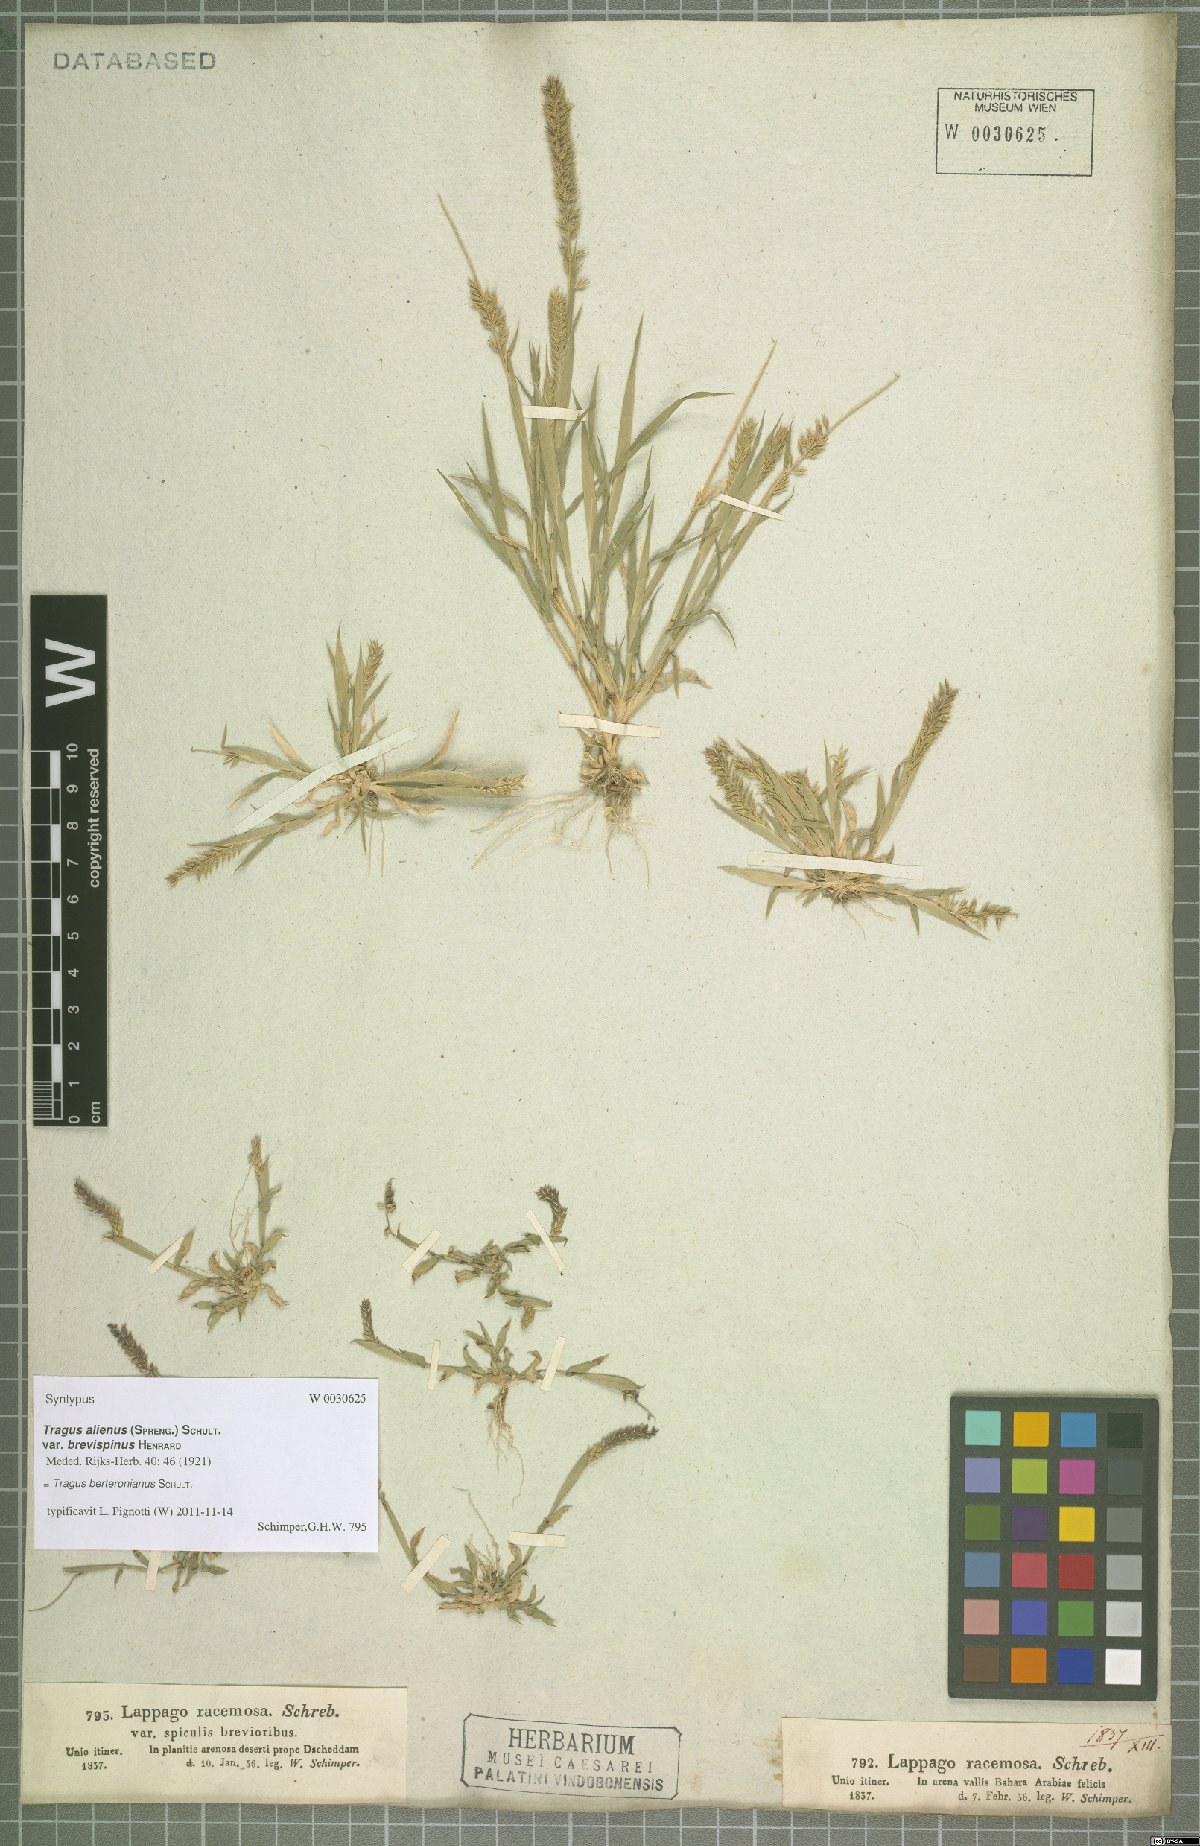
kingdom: Plantae
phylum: Tracheophyta
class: Liliopsida
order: Poales
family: Poaceae
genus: Tragus
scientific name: Tragus berteronianus
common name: African bur-grass
